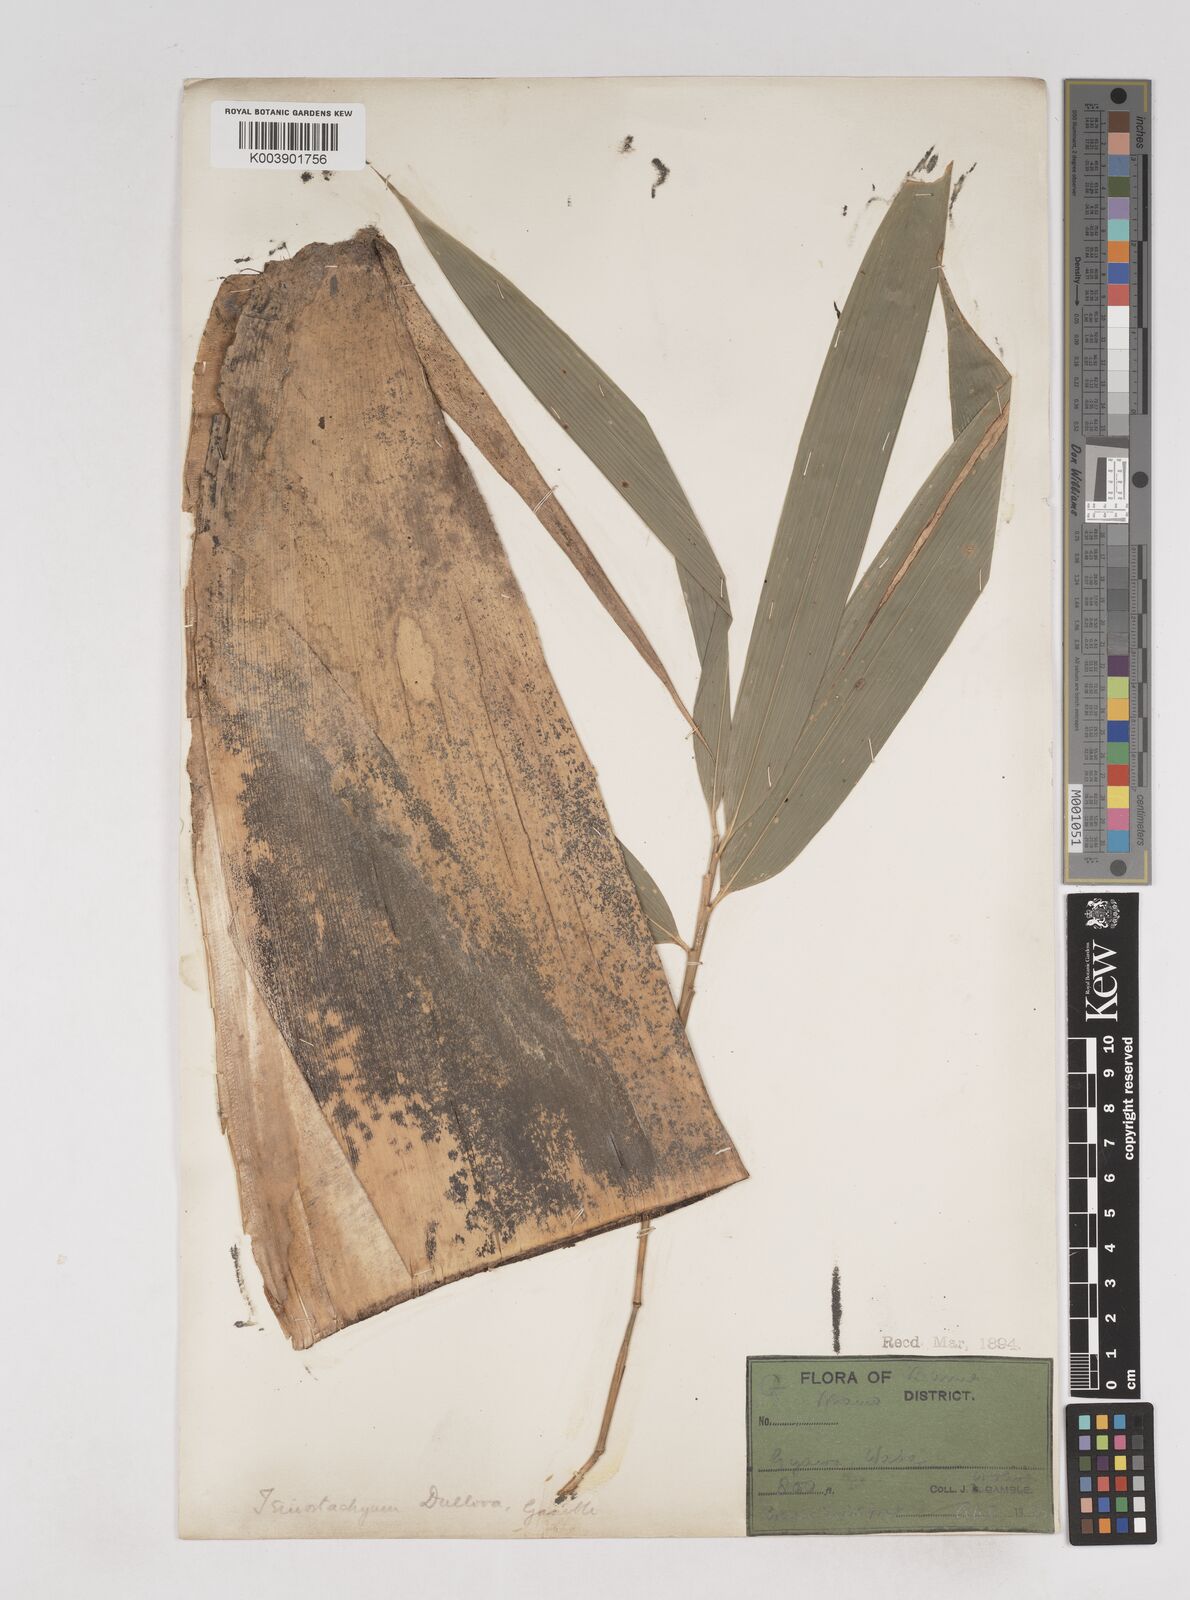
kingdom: Plantae
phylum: Tracheophyta
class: Liliopsida
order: Poales
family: Poaceae
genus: Schizostachyum
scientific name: Schizostachyum dullooa
